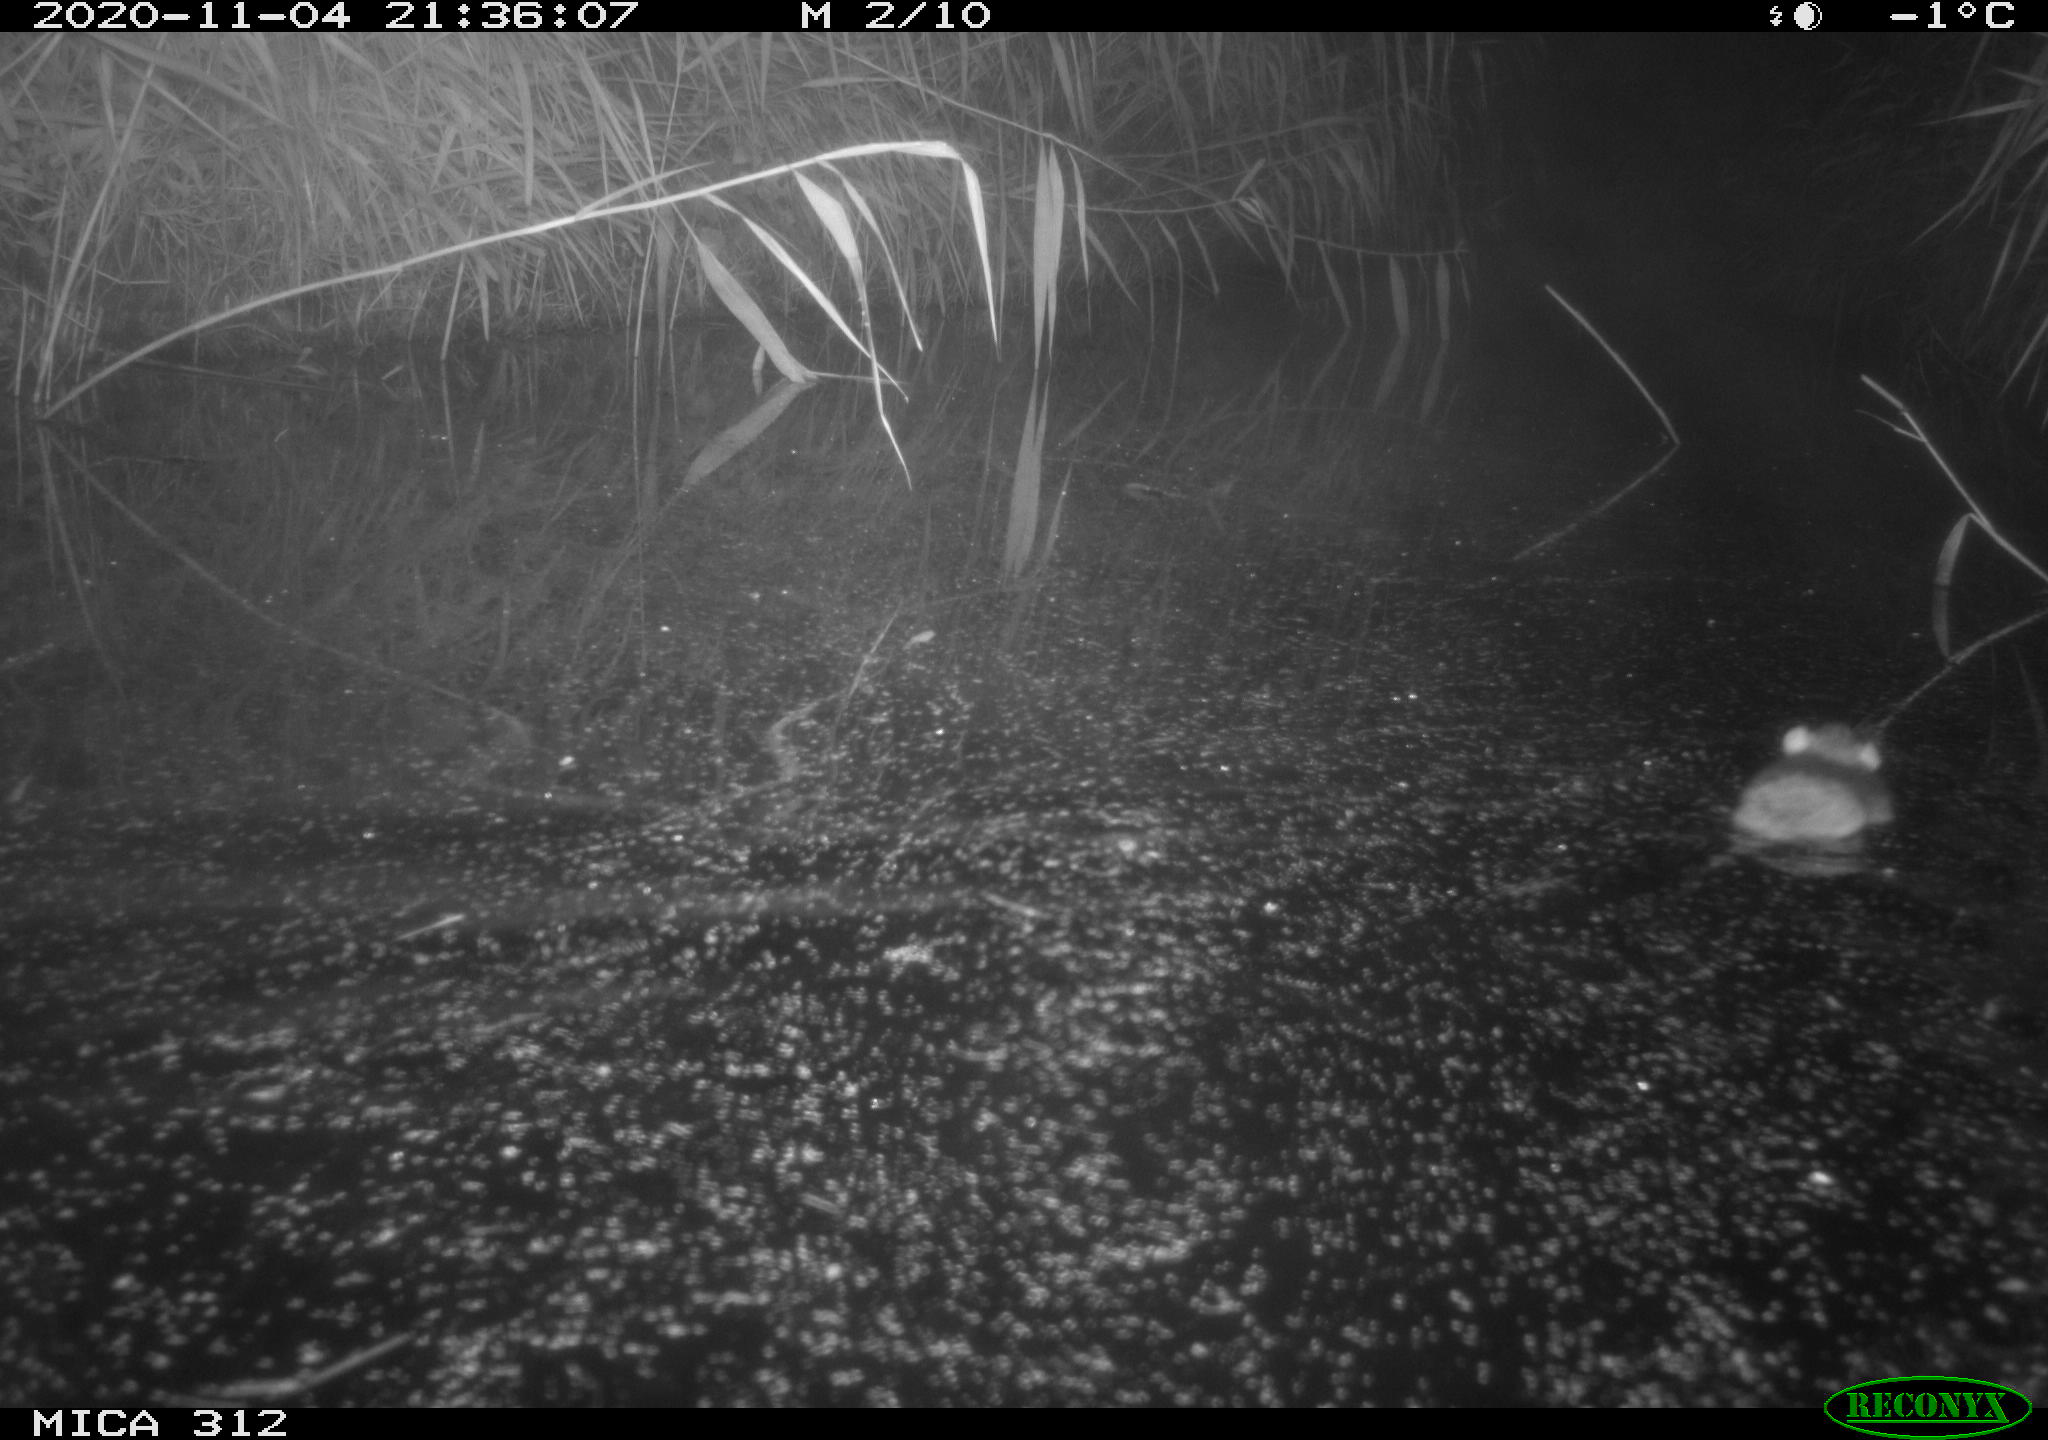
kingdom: Animalia
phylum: Chordata
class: Mammalia
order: Rodentia
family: Muridae
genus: Rattus
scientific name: Rattus norvegicus
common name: Brown rat
